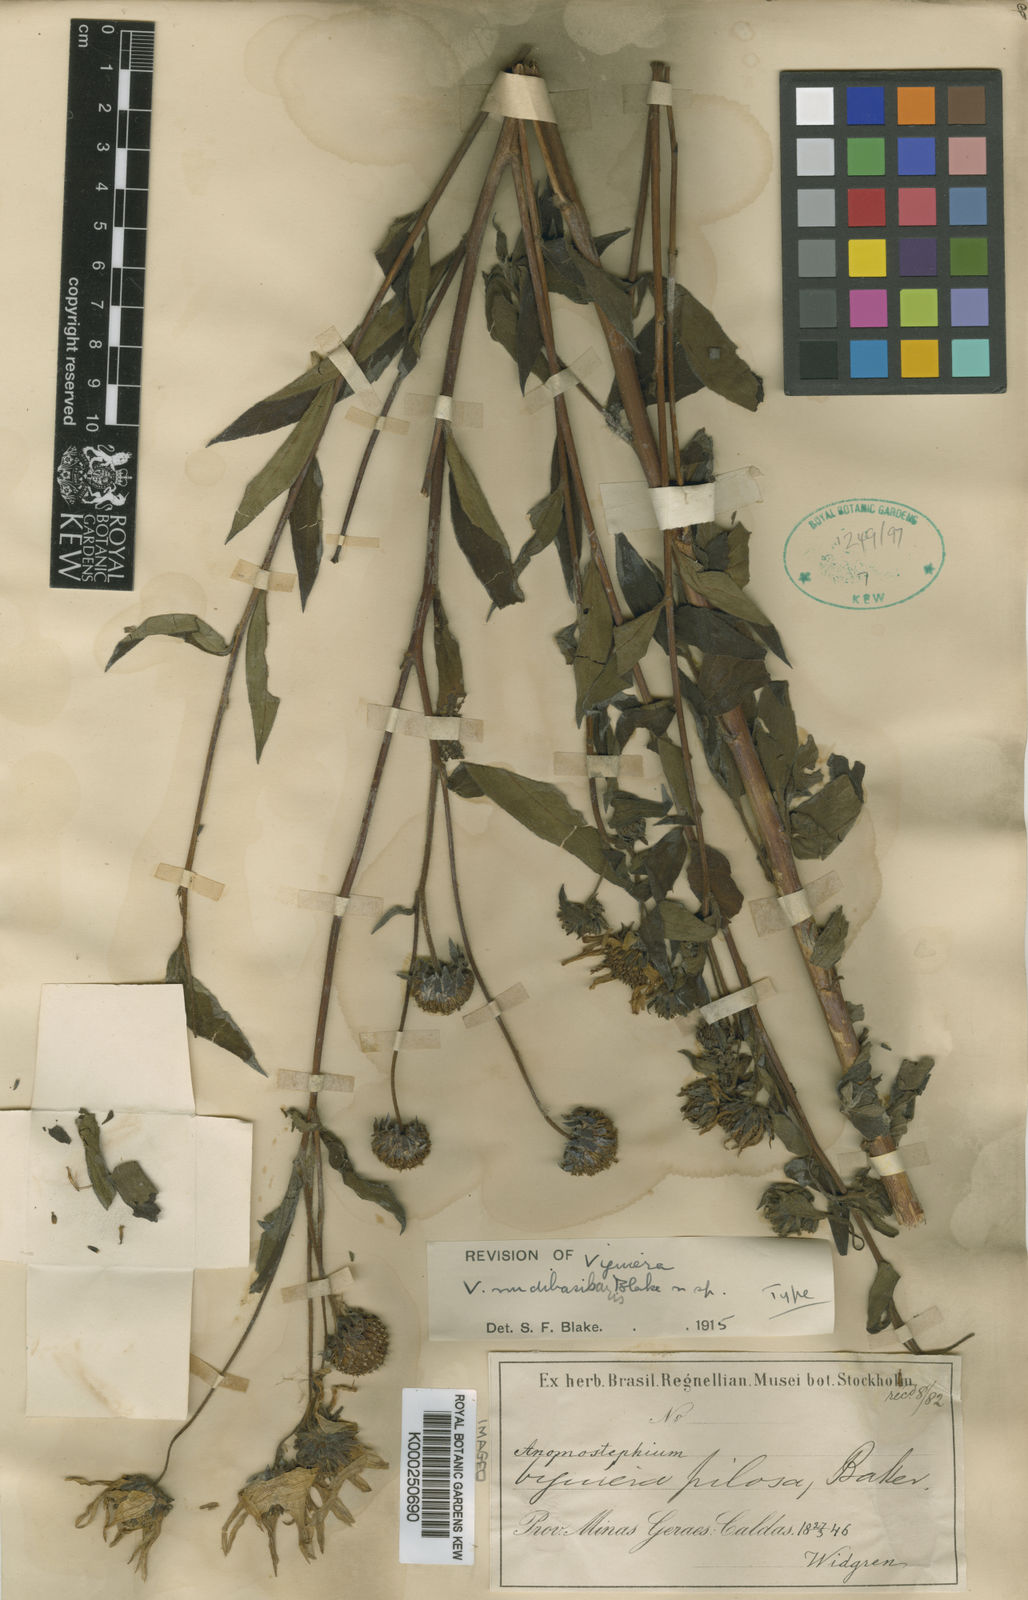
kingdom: Plantae
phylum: Tracheophyta
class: Magnoliopsida
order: Asterales
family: Asteraceae
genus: Aldama
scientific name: Aldama nudibasilaris
